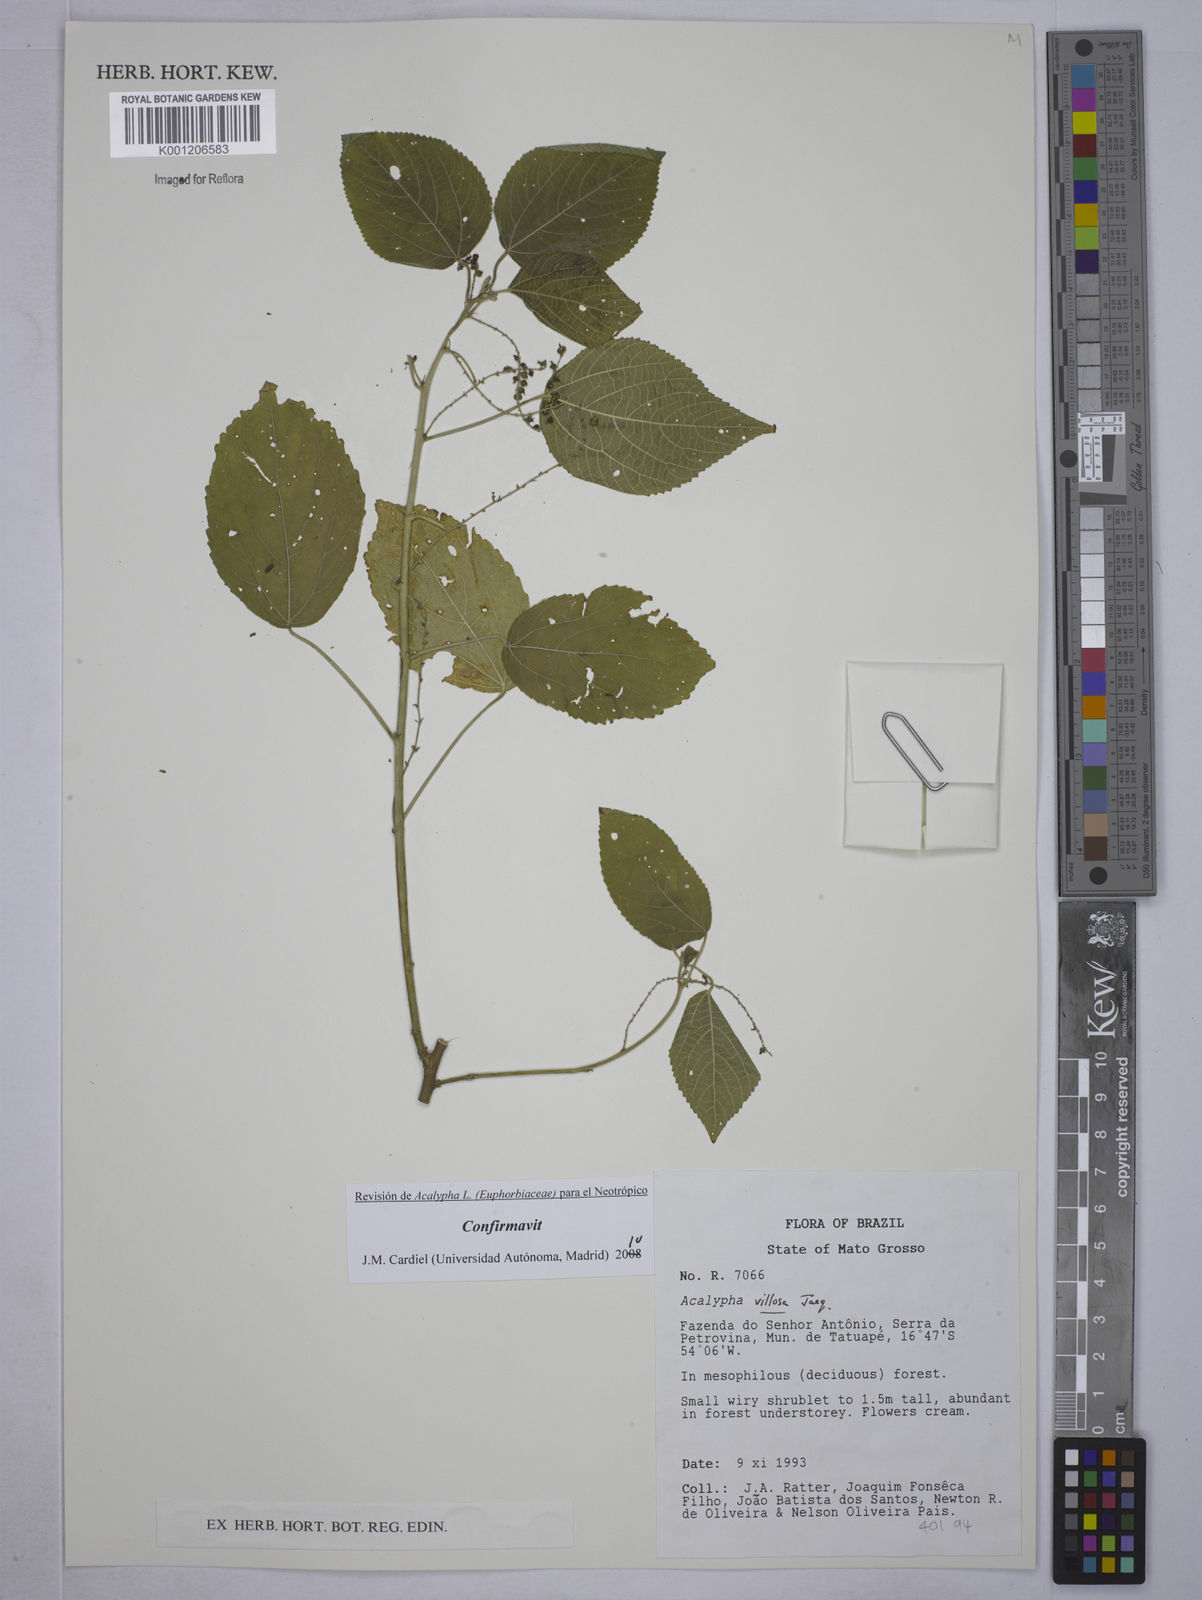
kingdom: Plantae
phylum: Tracheophyta
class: Magnoliopsida
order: Malpighiales
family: Euphorbiaceae
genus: Acalypha
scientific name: Acalypha villosa
